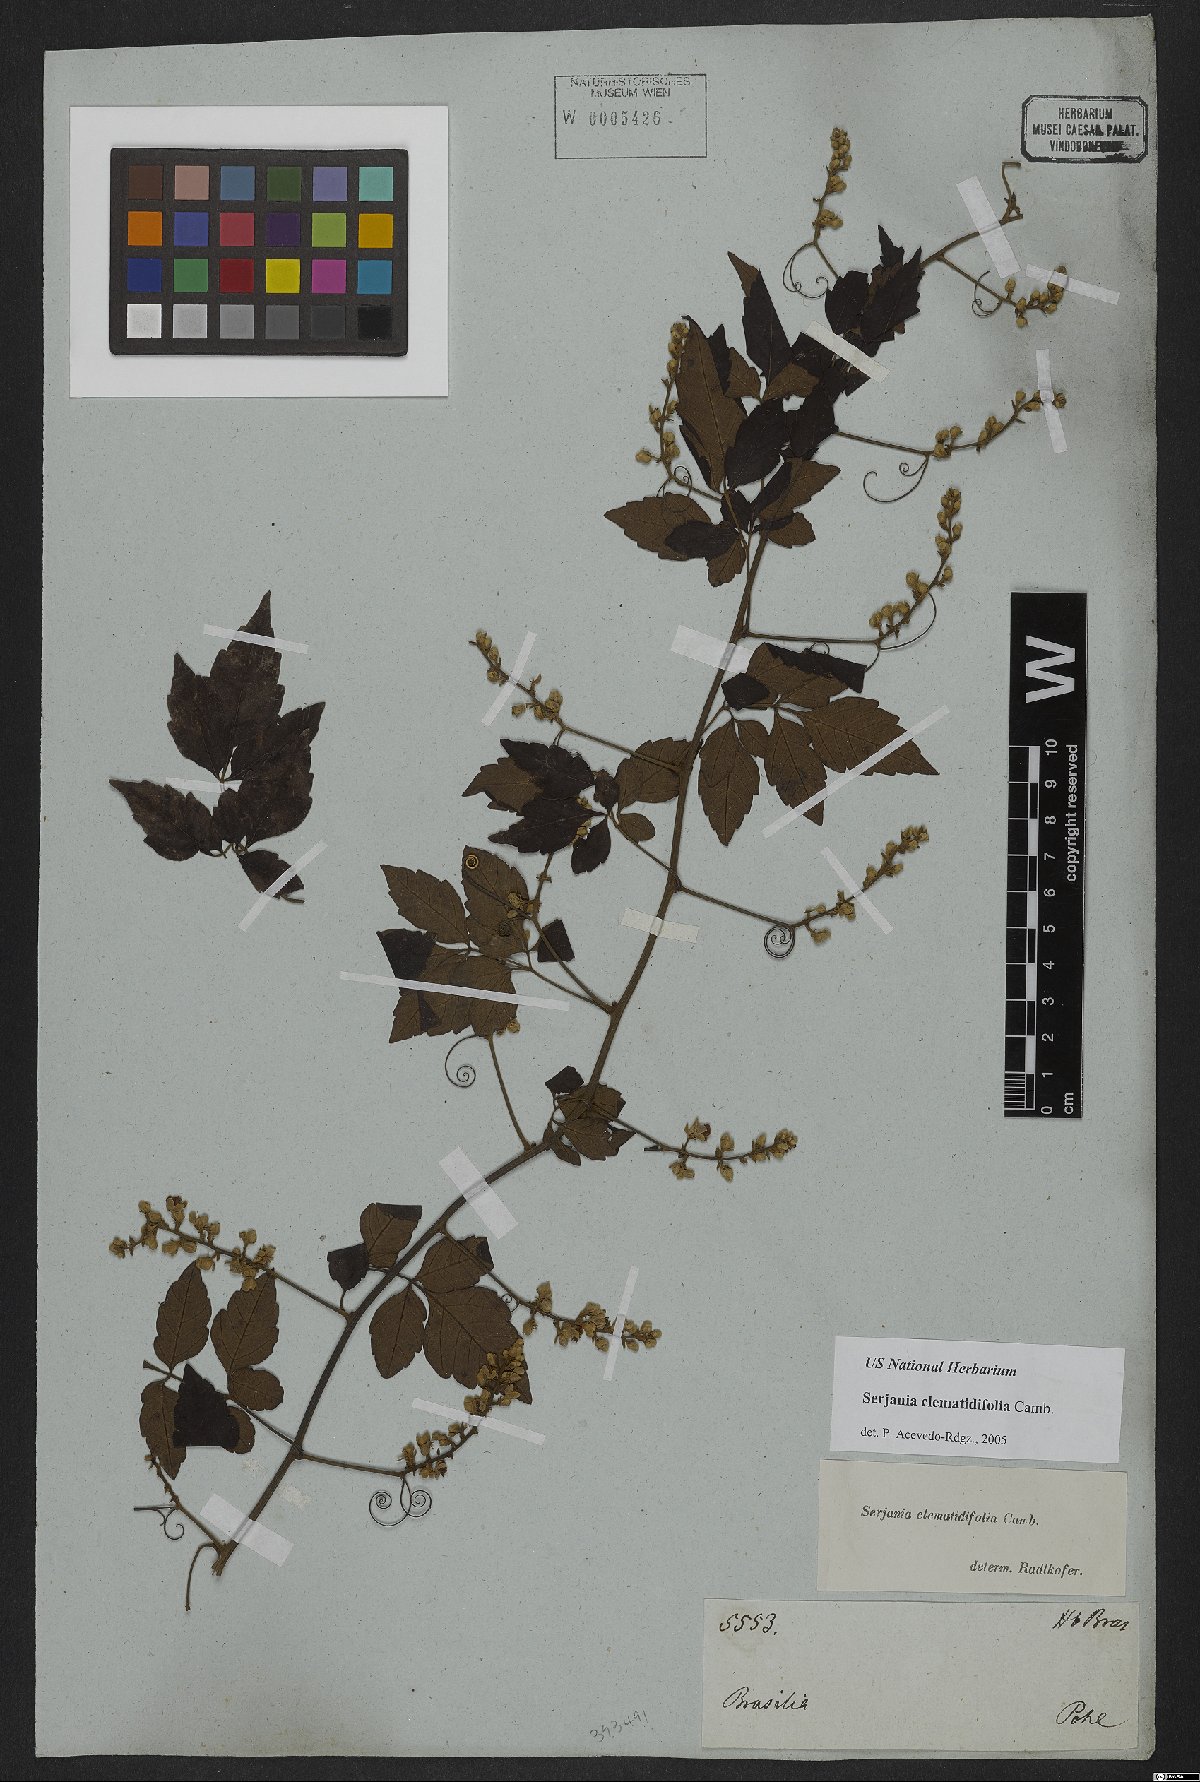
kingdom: Plantae
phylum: Tracheophyta
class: Magnoliopsida
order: Sapindales
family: Sapindaceae
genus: Serjania
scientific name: Serjania clematidifolia
